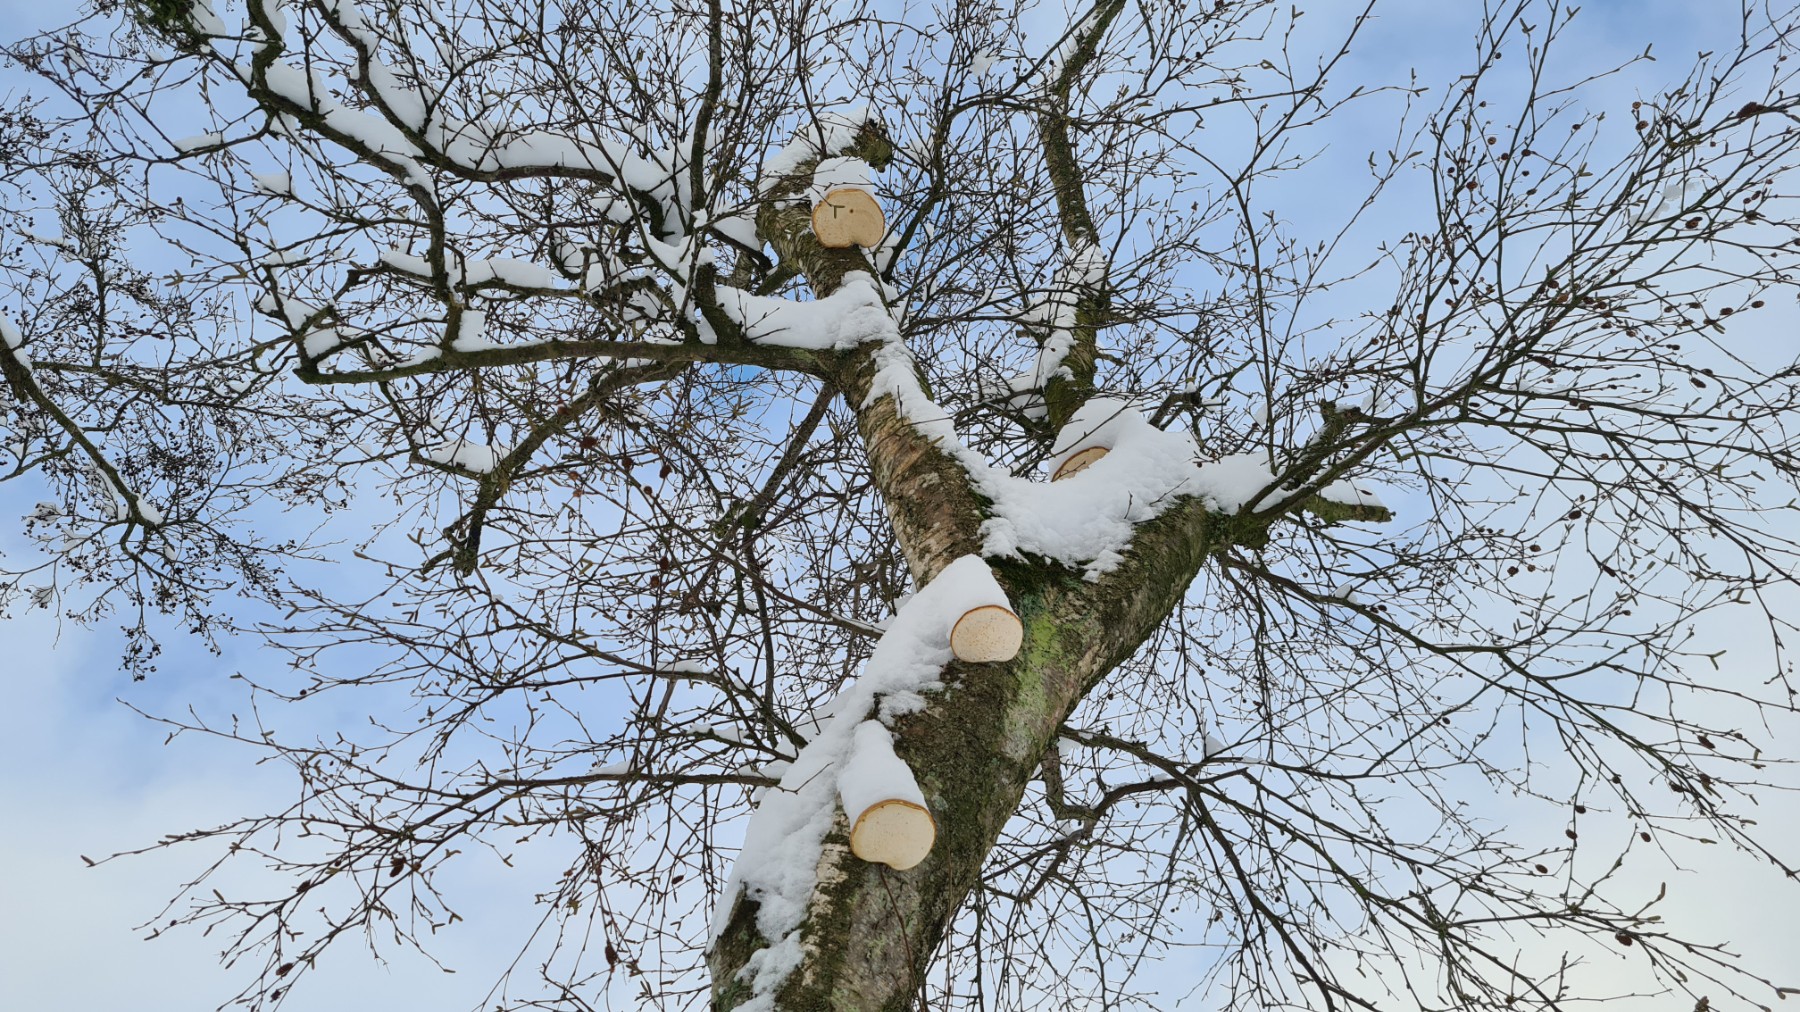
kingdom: Fungi
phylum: Basidiomycota
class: Agaricomycetes
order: Polyporales
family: Fomitopsidaceae
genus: Fomitopsis
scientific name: Fomitopsis betulina
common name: birkeporesvamp
